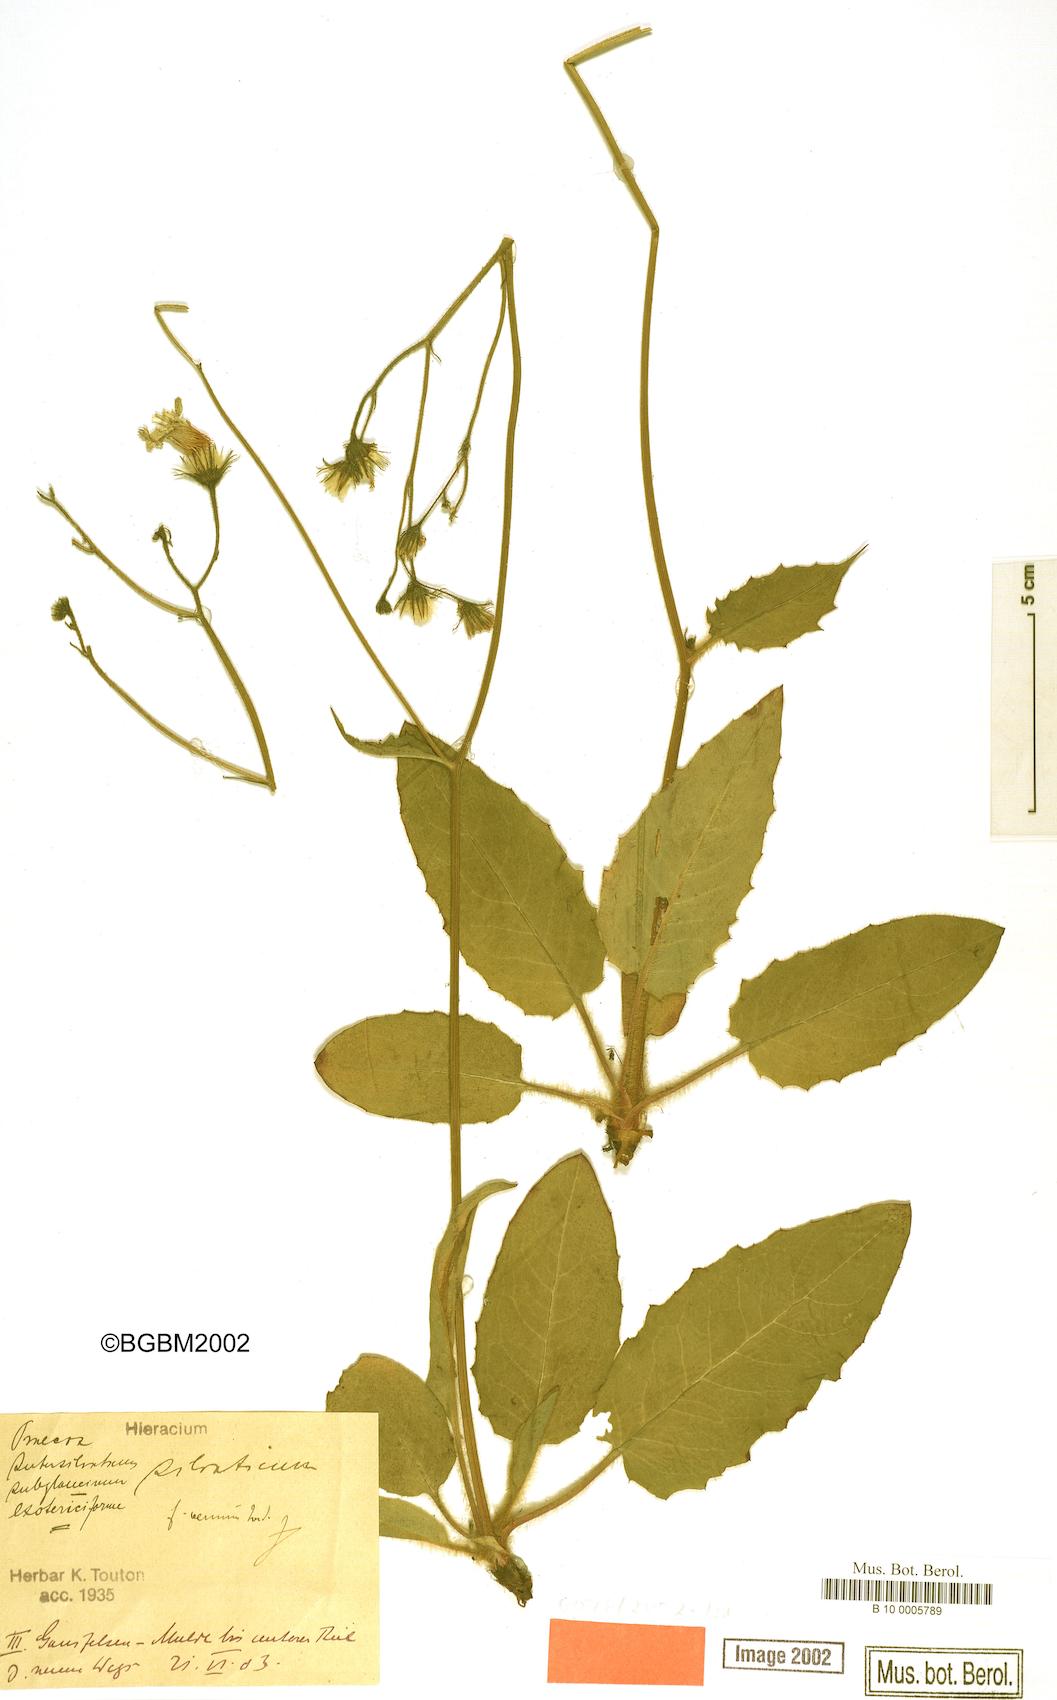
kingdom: Plantae
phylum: Tracheophyta
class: Magnoliopsida
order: Asterales
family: Asteraceae
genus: Hieracium
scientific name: Hieracium praecox
